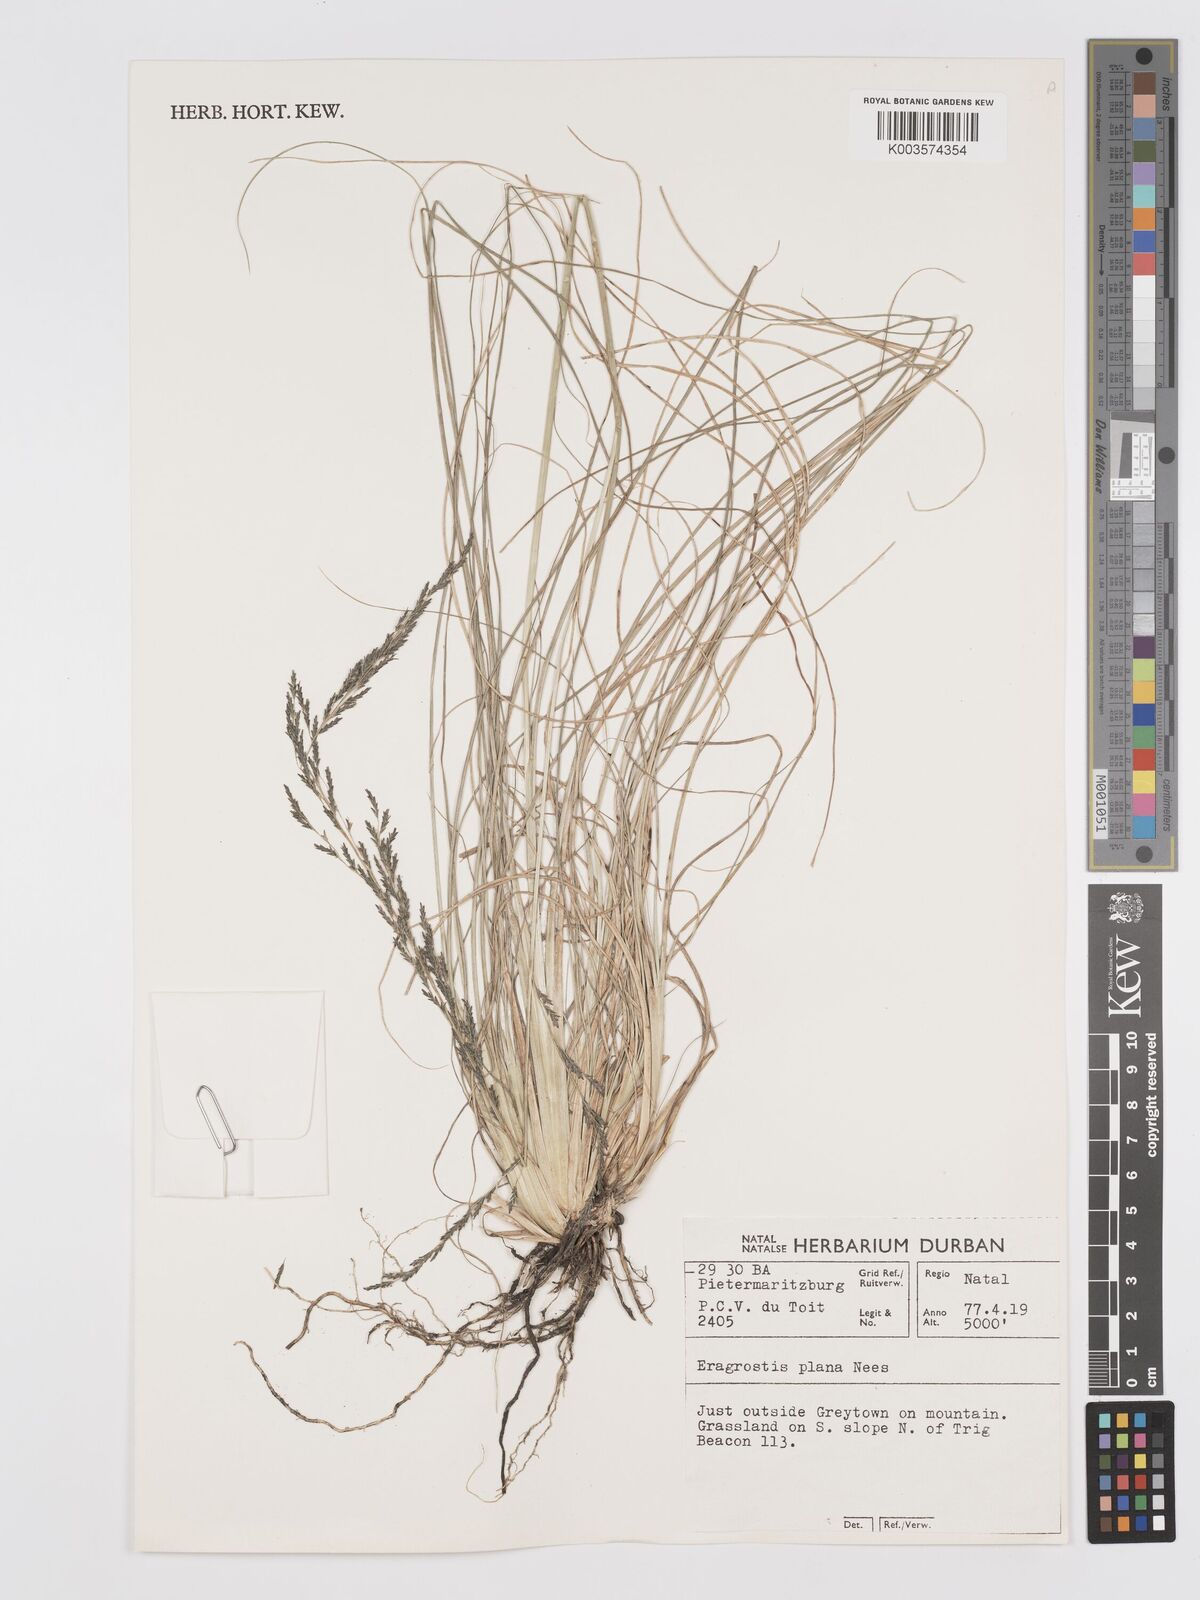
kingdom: Plantae
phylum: Tracheophyta
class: Liliopsida
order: Poales
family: Poaceae
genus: Eragrostis
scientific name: Eragrostis plana
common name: South african lovegrass
